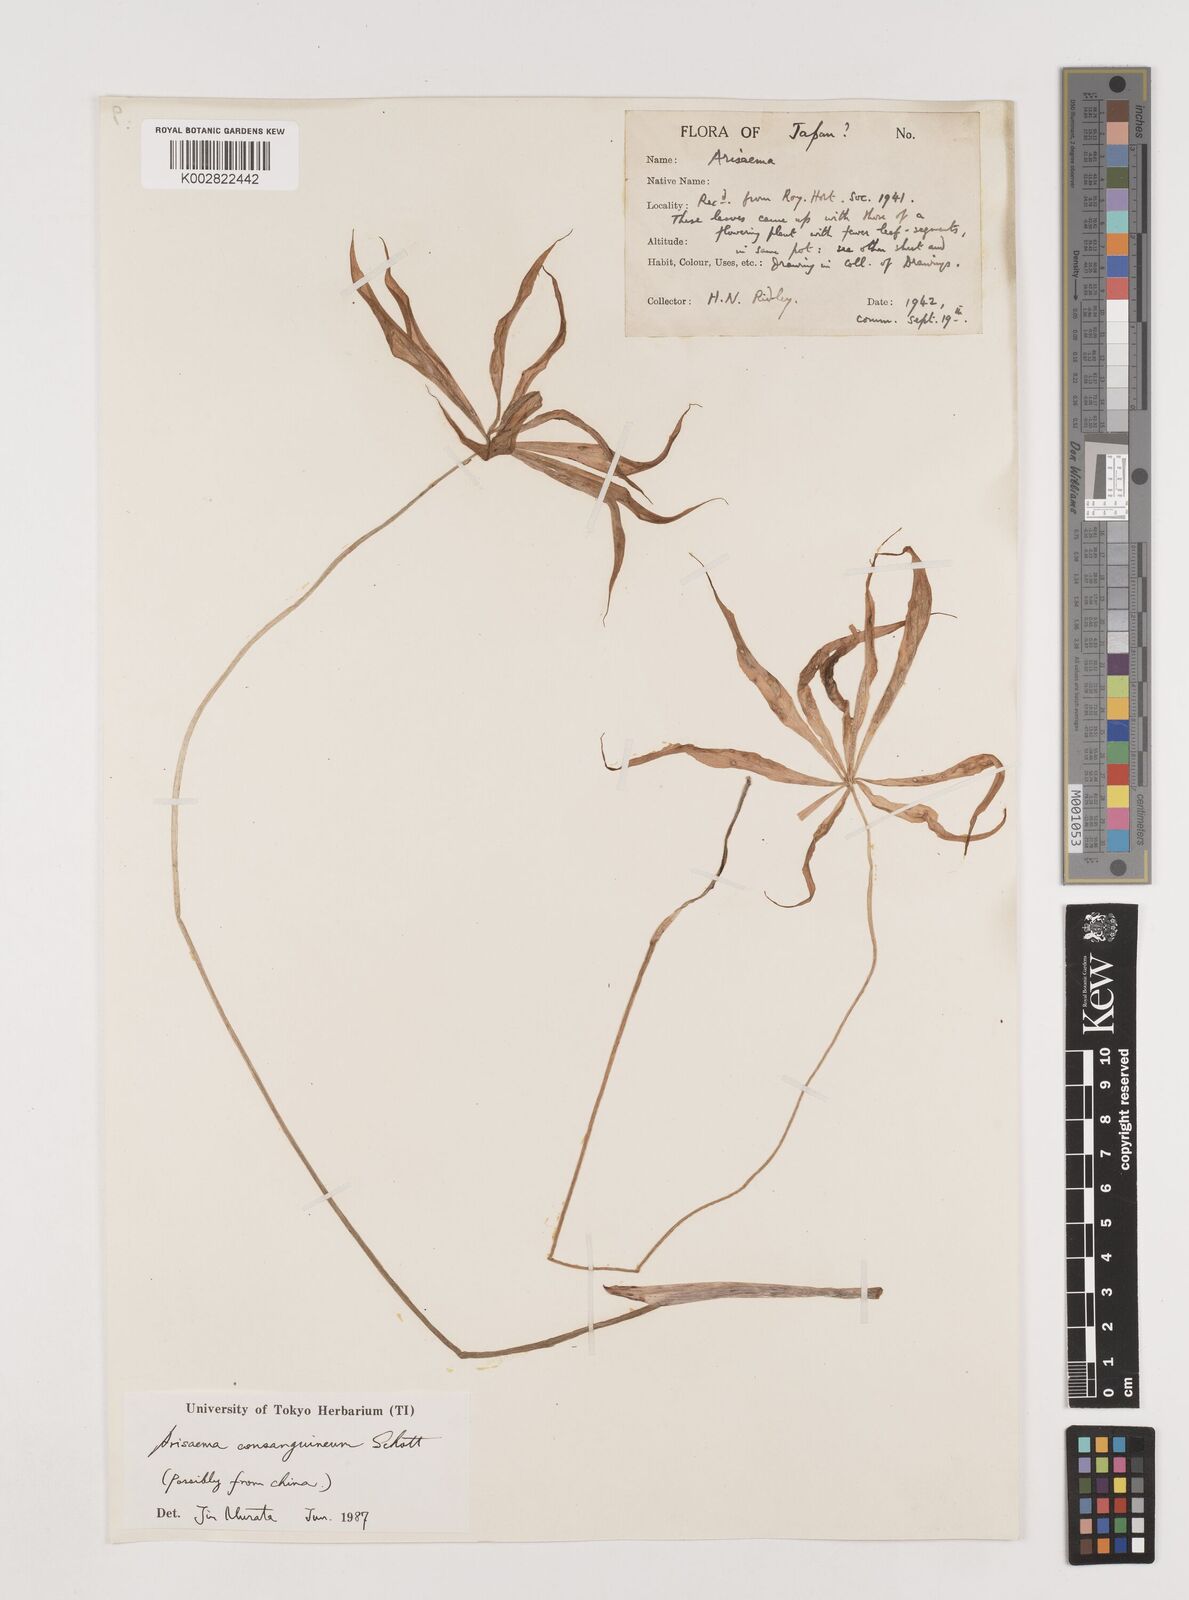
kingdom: Plantae
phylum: Tracheophyta
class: Liliopsida
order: Alismatales
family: Araceae
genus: Arisaema
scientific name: Arisaema erubescens
